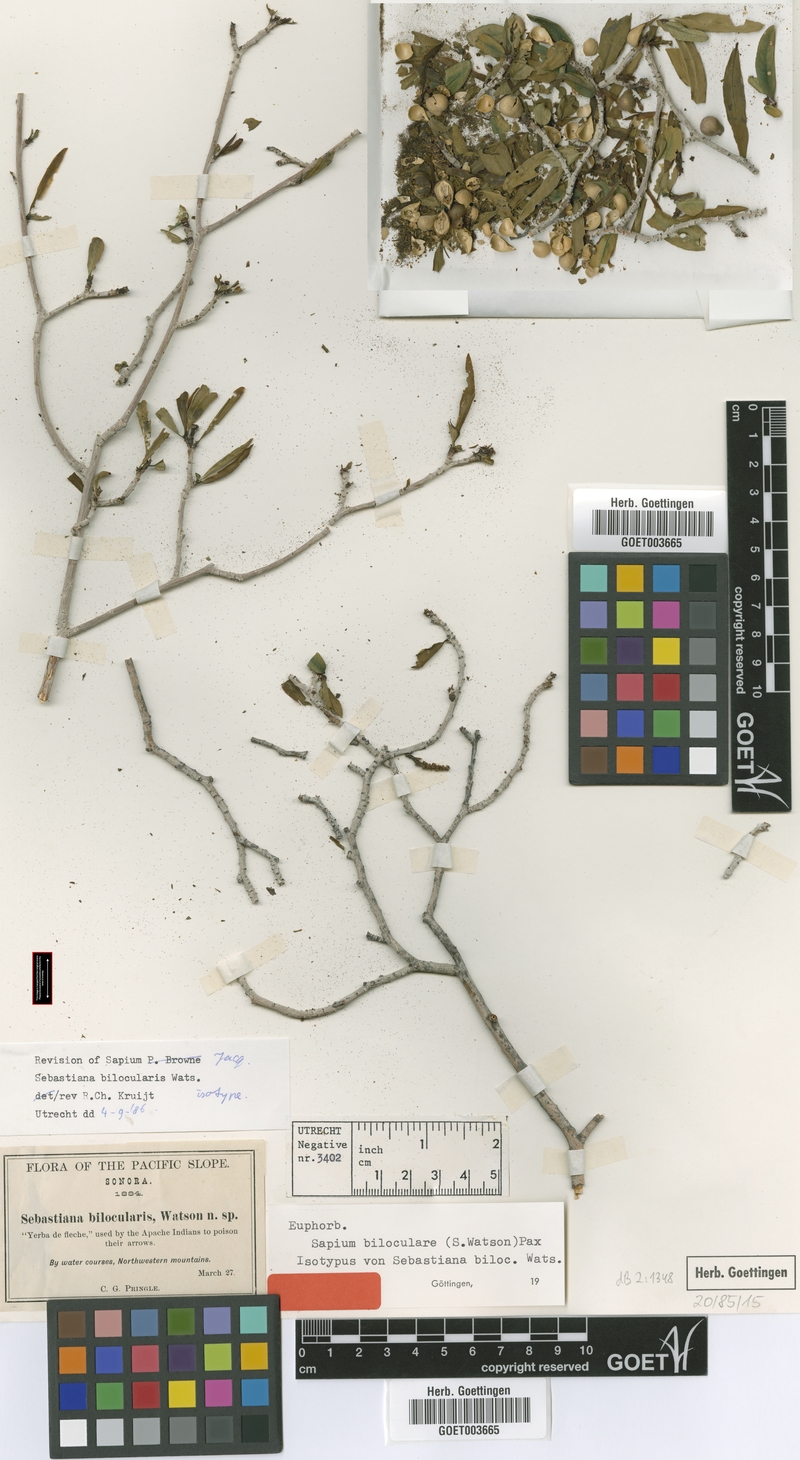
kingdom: Plantae
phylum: Tracheophyta
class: Magnoliopsida
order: Malpighiales
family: Euphorbiaceae
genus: Pleradenophora
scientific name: Pleradenophora bilocularis
